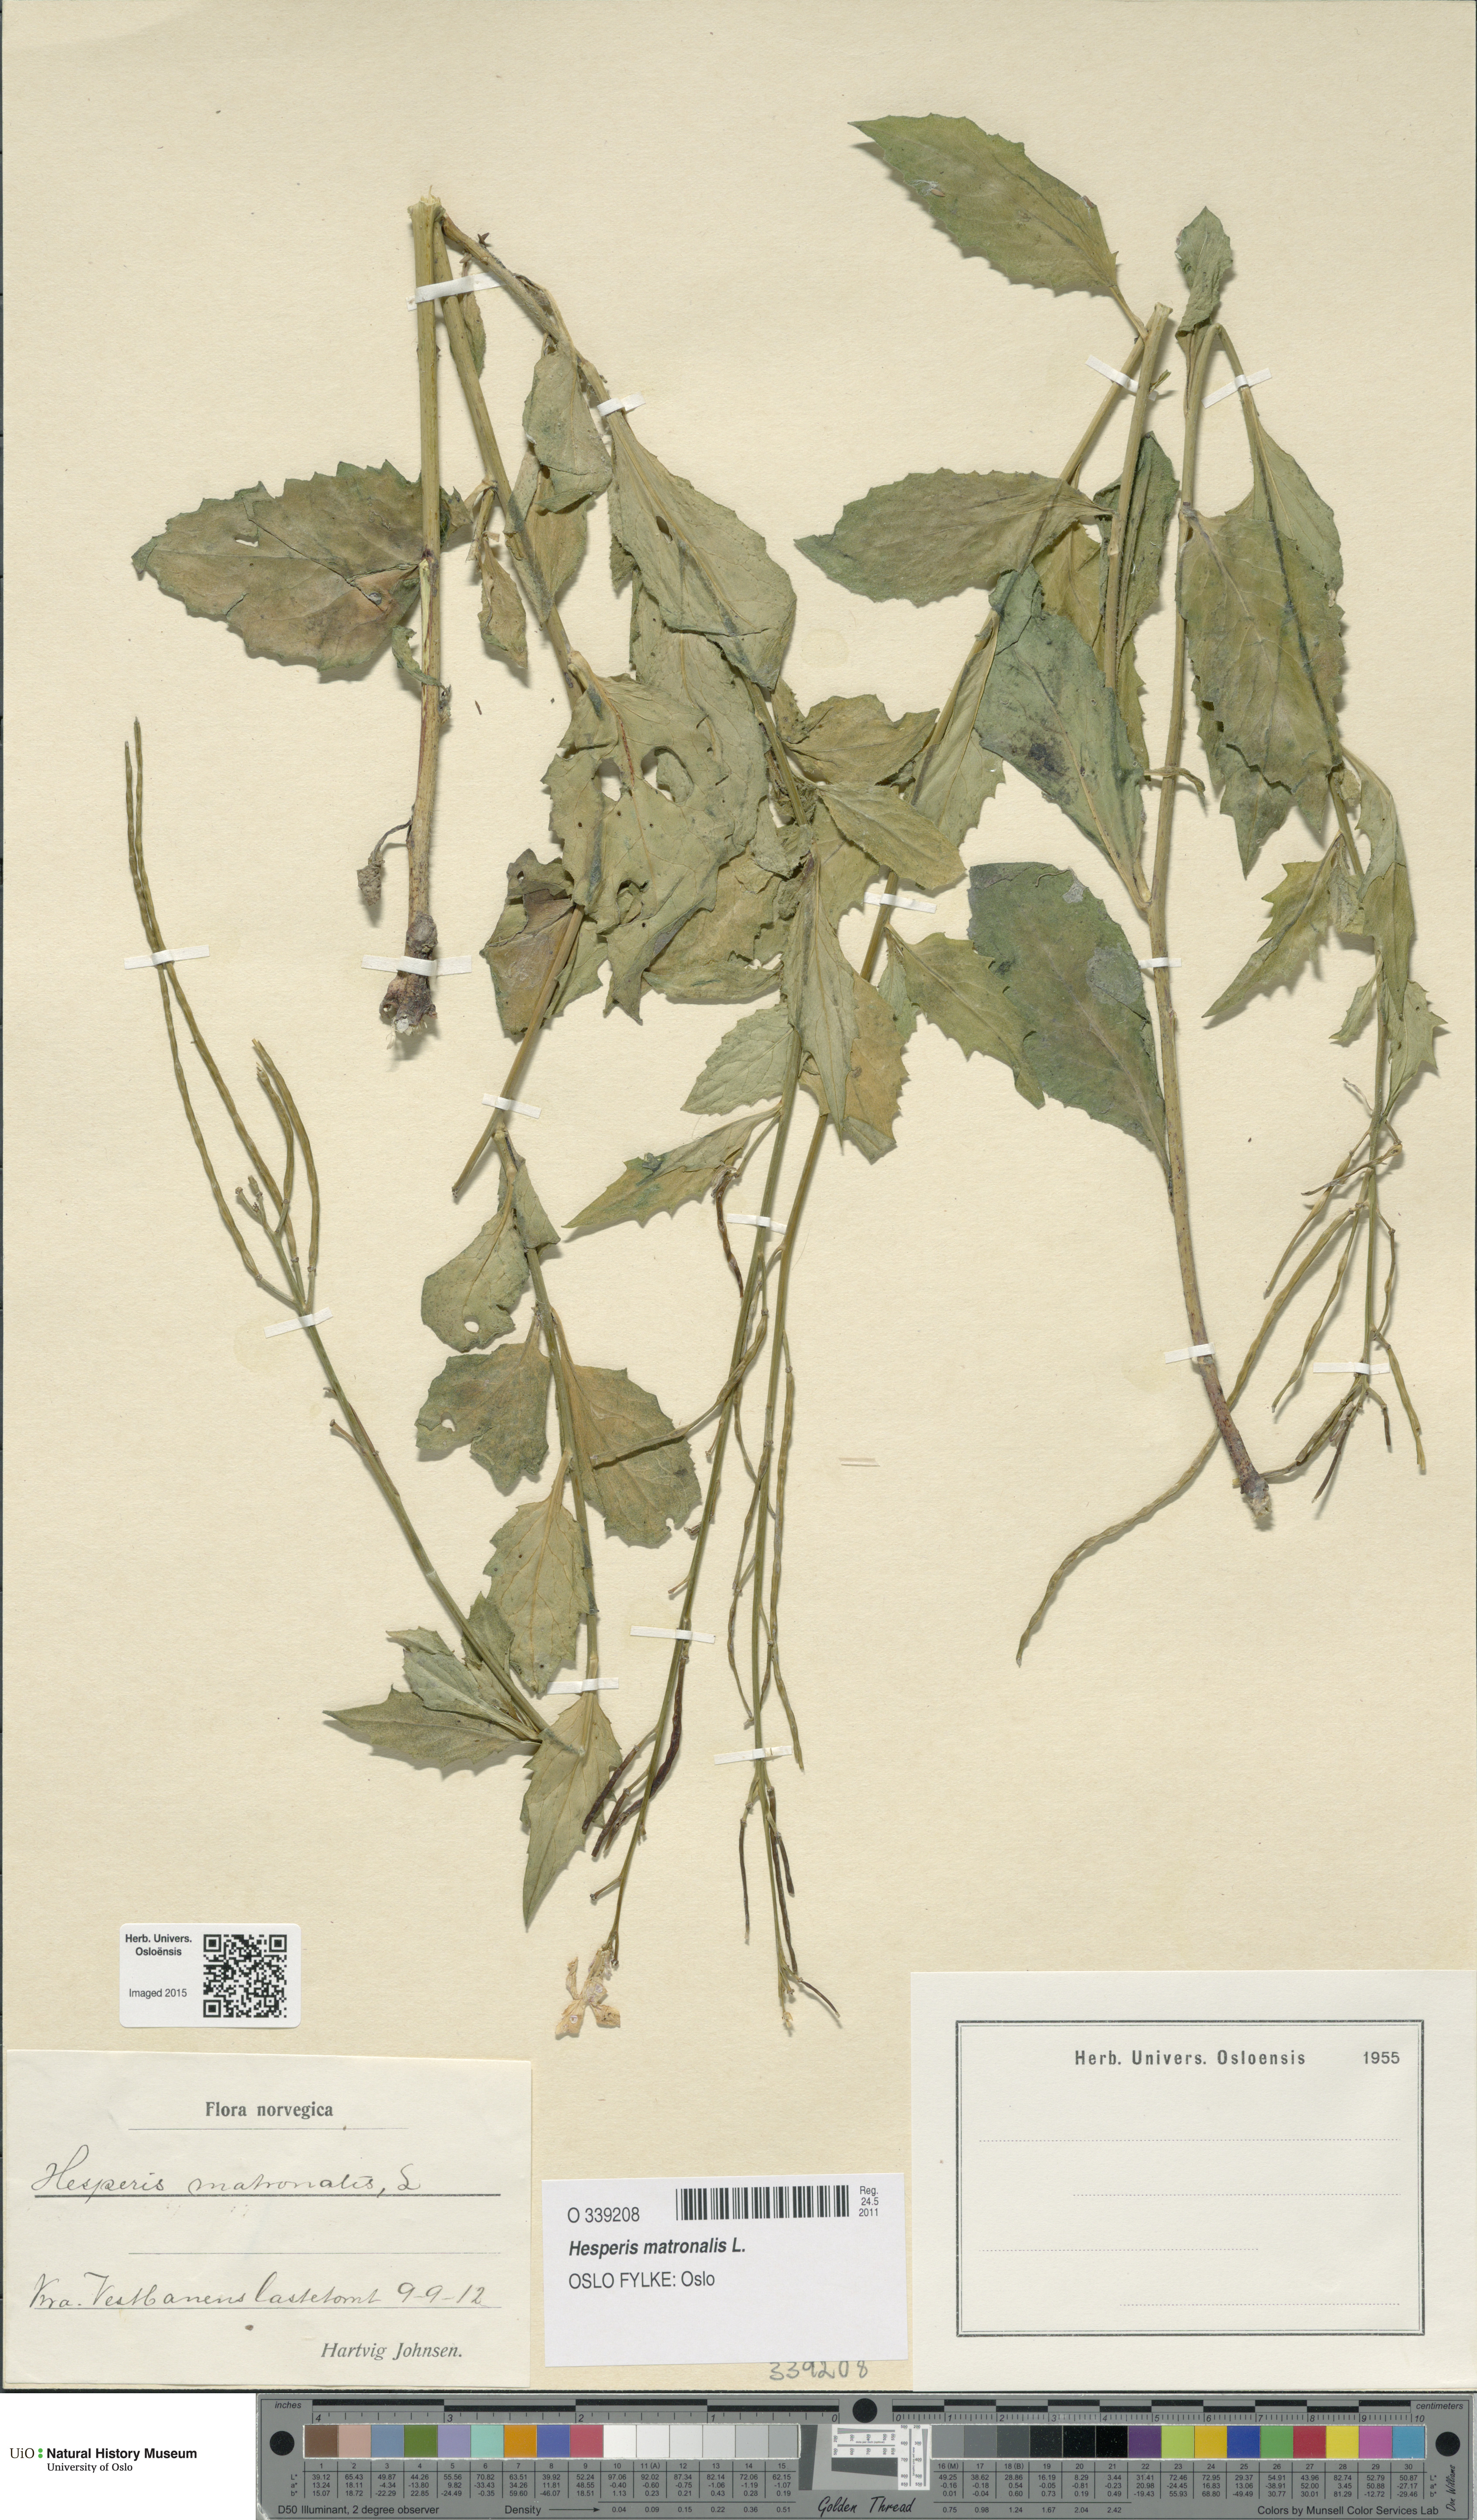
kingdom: Plantae
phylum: Tracheophyta
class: Magnoliopsida
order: Brassicales
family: Brassicaceae
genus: Hesperis
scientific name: Hesperis matronalis
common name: Dame's-violet
